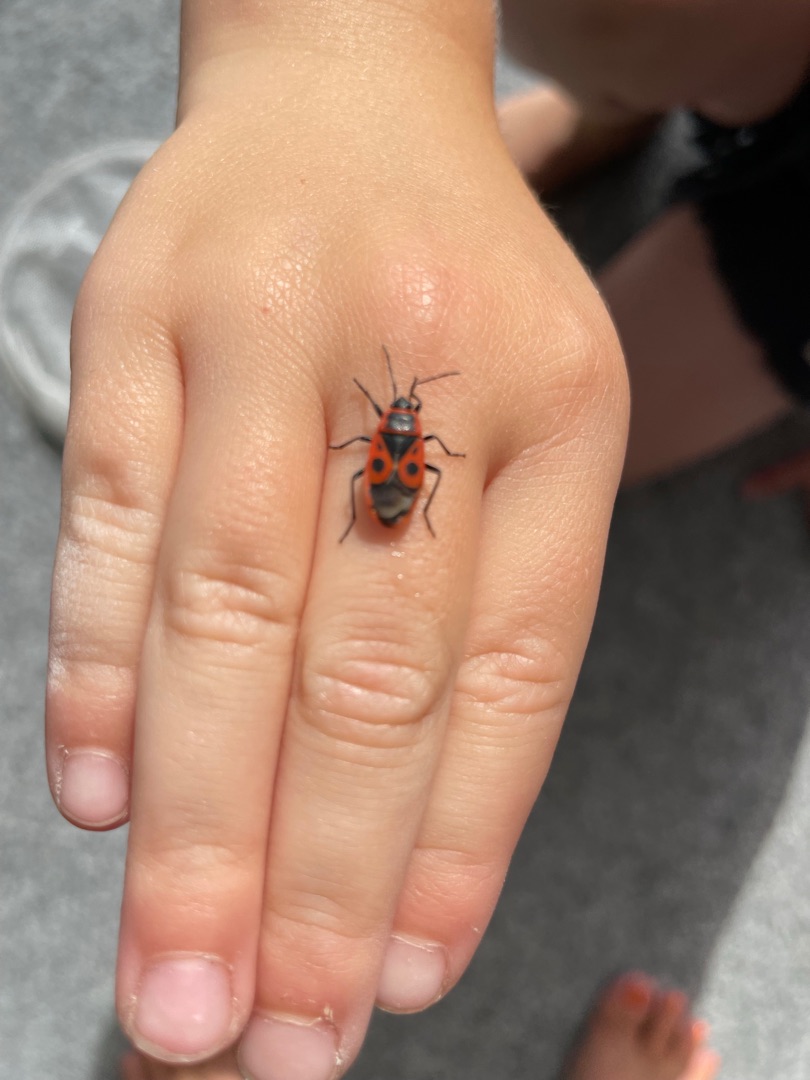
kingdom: Animalia
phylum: Arthropoda
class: Insecta
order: Hemiptera
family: Pyrrhocoridae
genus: Pyrrhocoris
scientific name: Pyrrhocoris apterus
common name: Ildtæge
